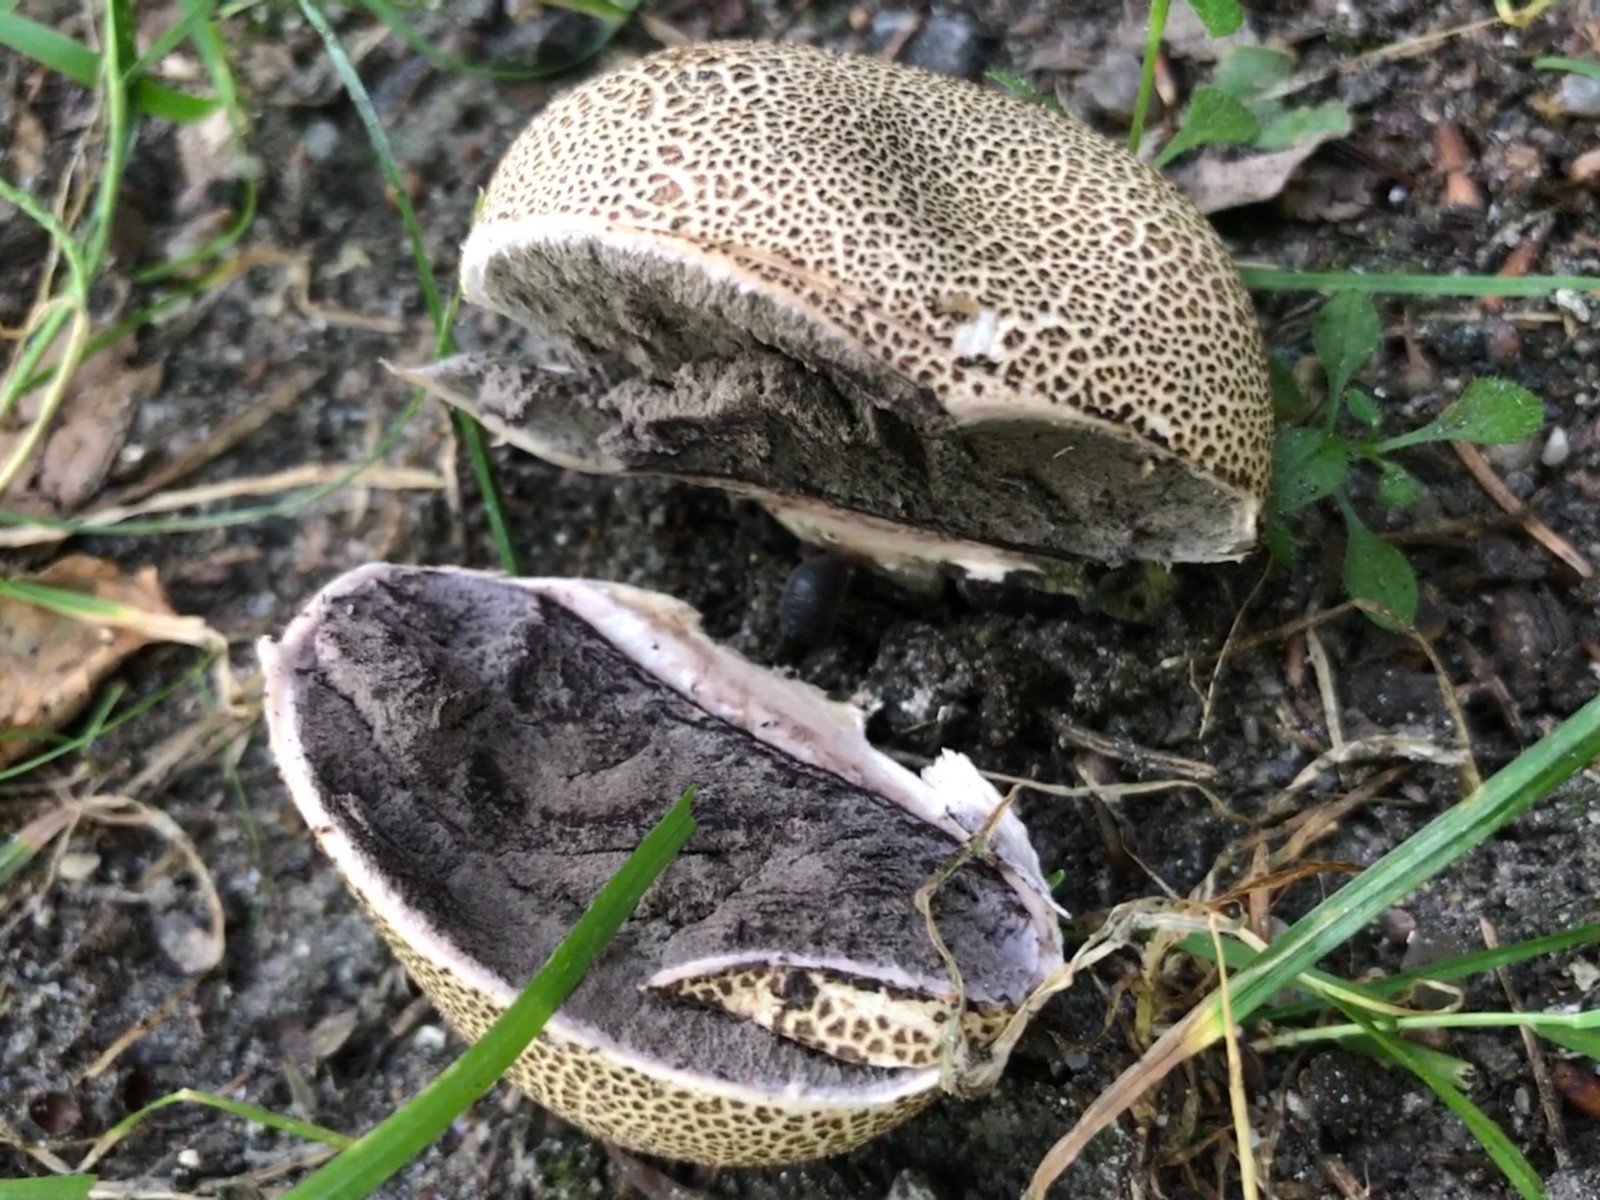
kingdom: Fungi
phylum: Basidiomycota
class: Agaricomycetes
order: Boletales
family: Sclerodermataceae
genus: Scleroderma
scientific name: Scleroderma citrinum
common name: almindelig bruskbold
